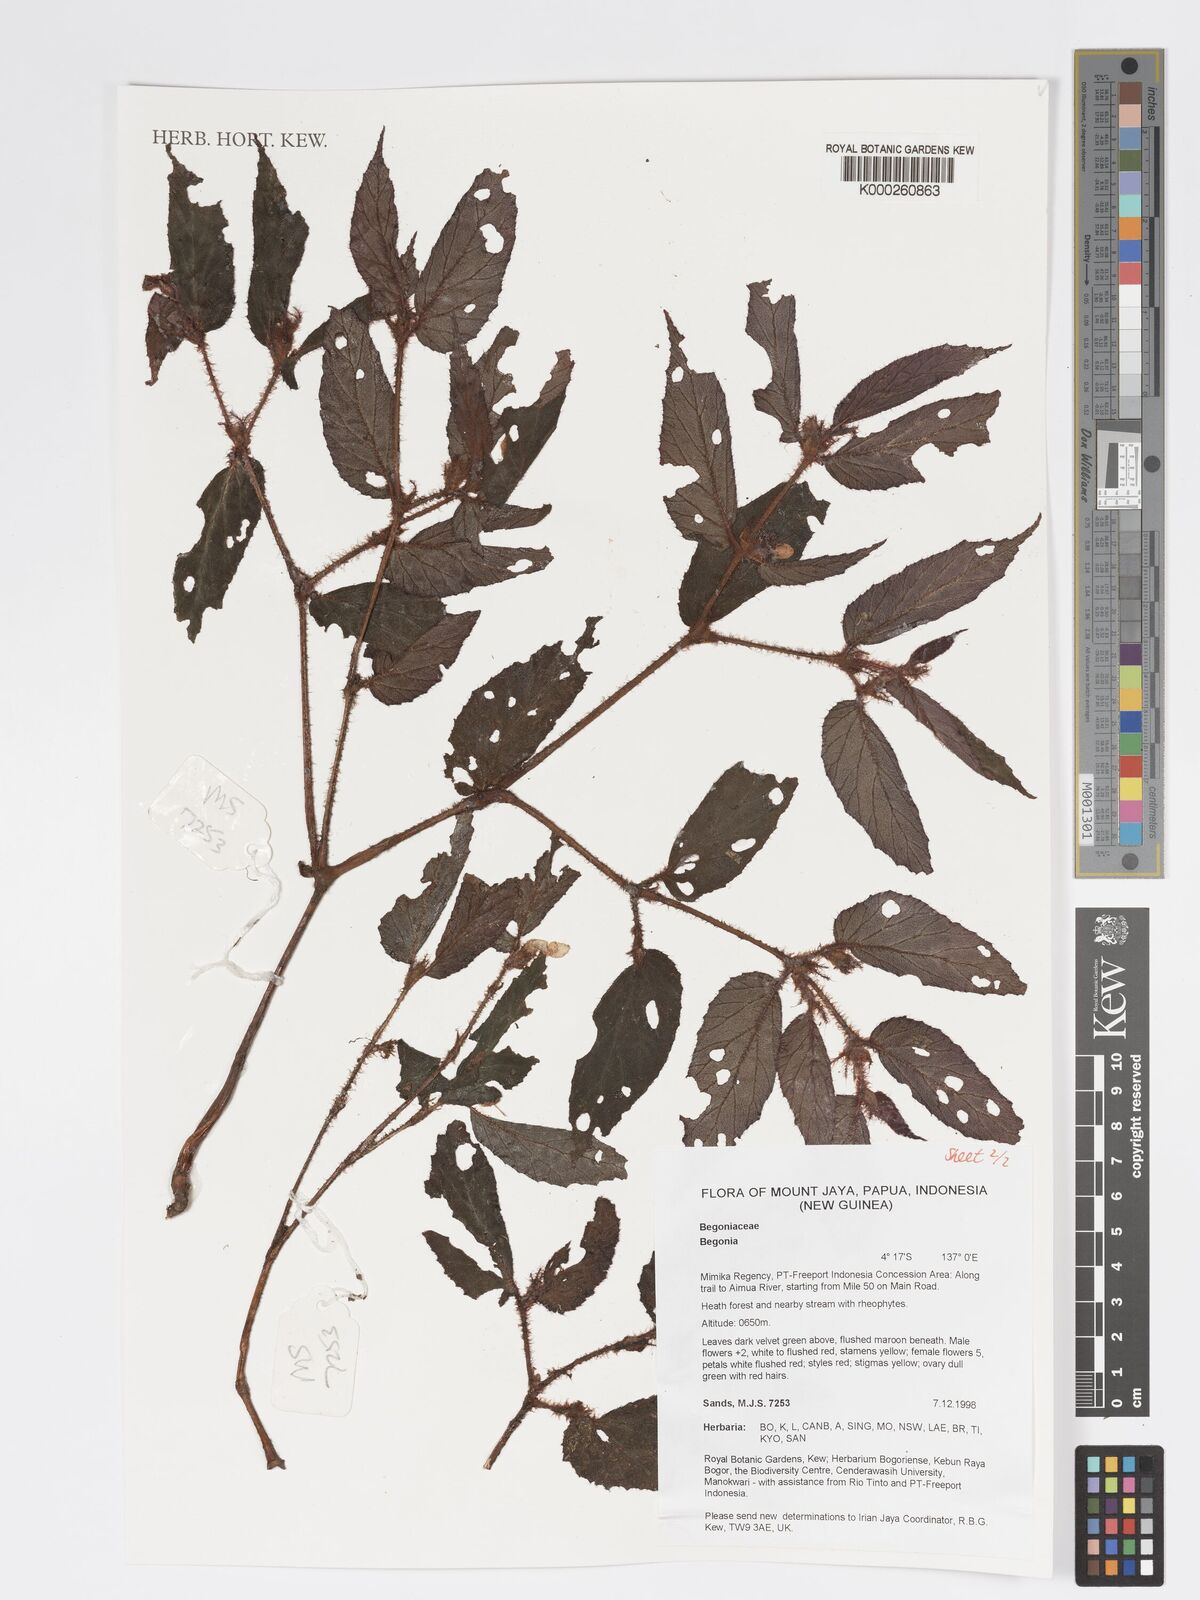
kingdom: Plantae
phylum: Tracheophyta
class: Magnoliopsida
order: Cucurbitales
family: Begoniaceae
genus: Begonia
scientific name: Begonia
